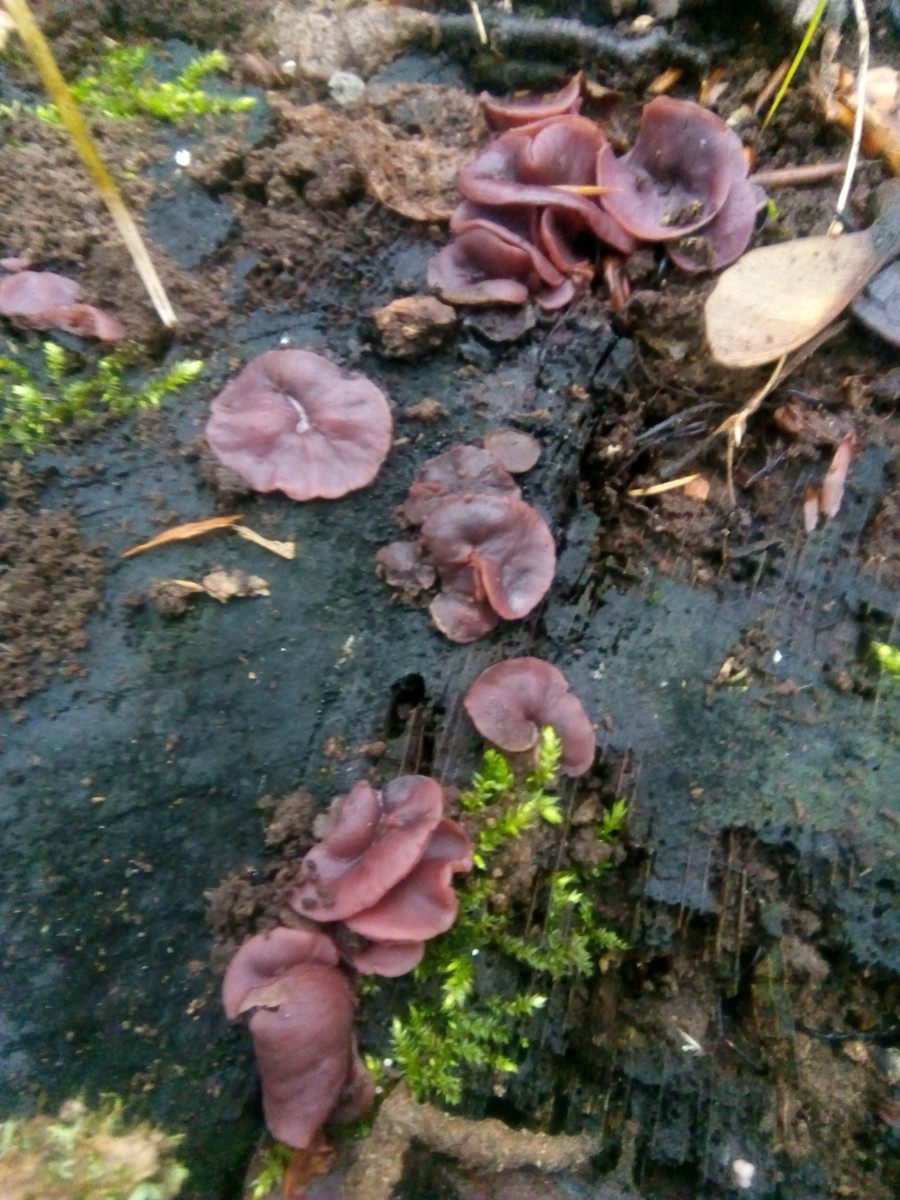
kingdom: Fungi
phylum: Ascomycota
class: Leotiomycetes
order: Helotiales
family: Gelatinodiscaceae
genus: Ascocoryne
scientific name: Ascocoryne cylichnium
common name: stor sejskive
